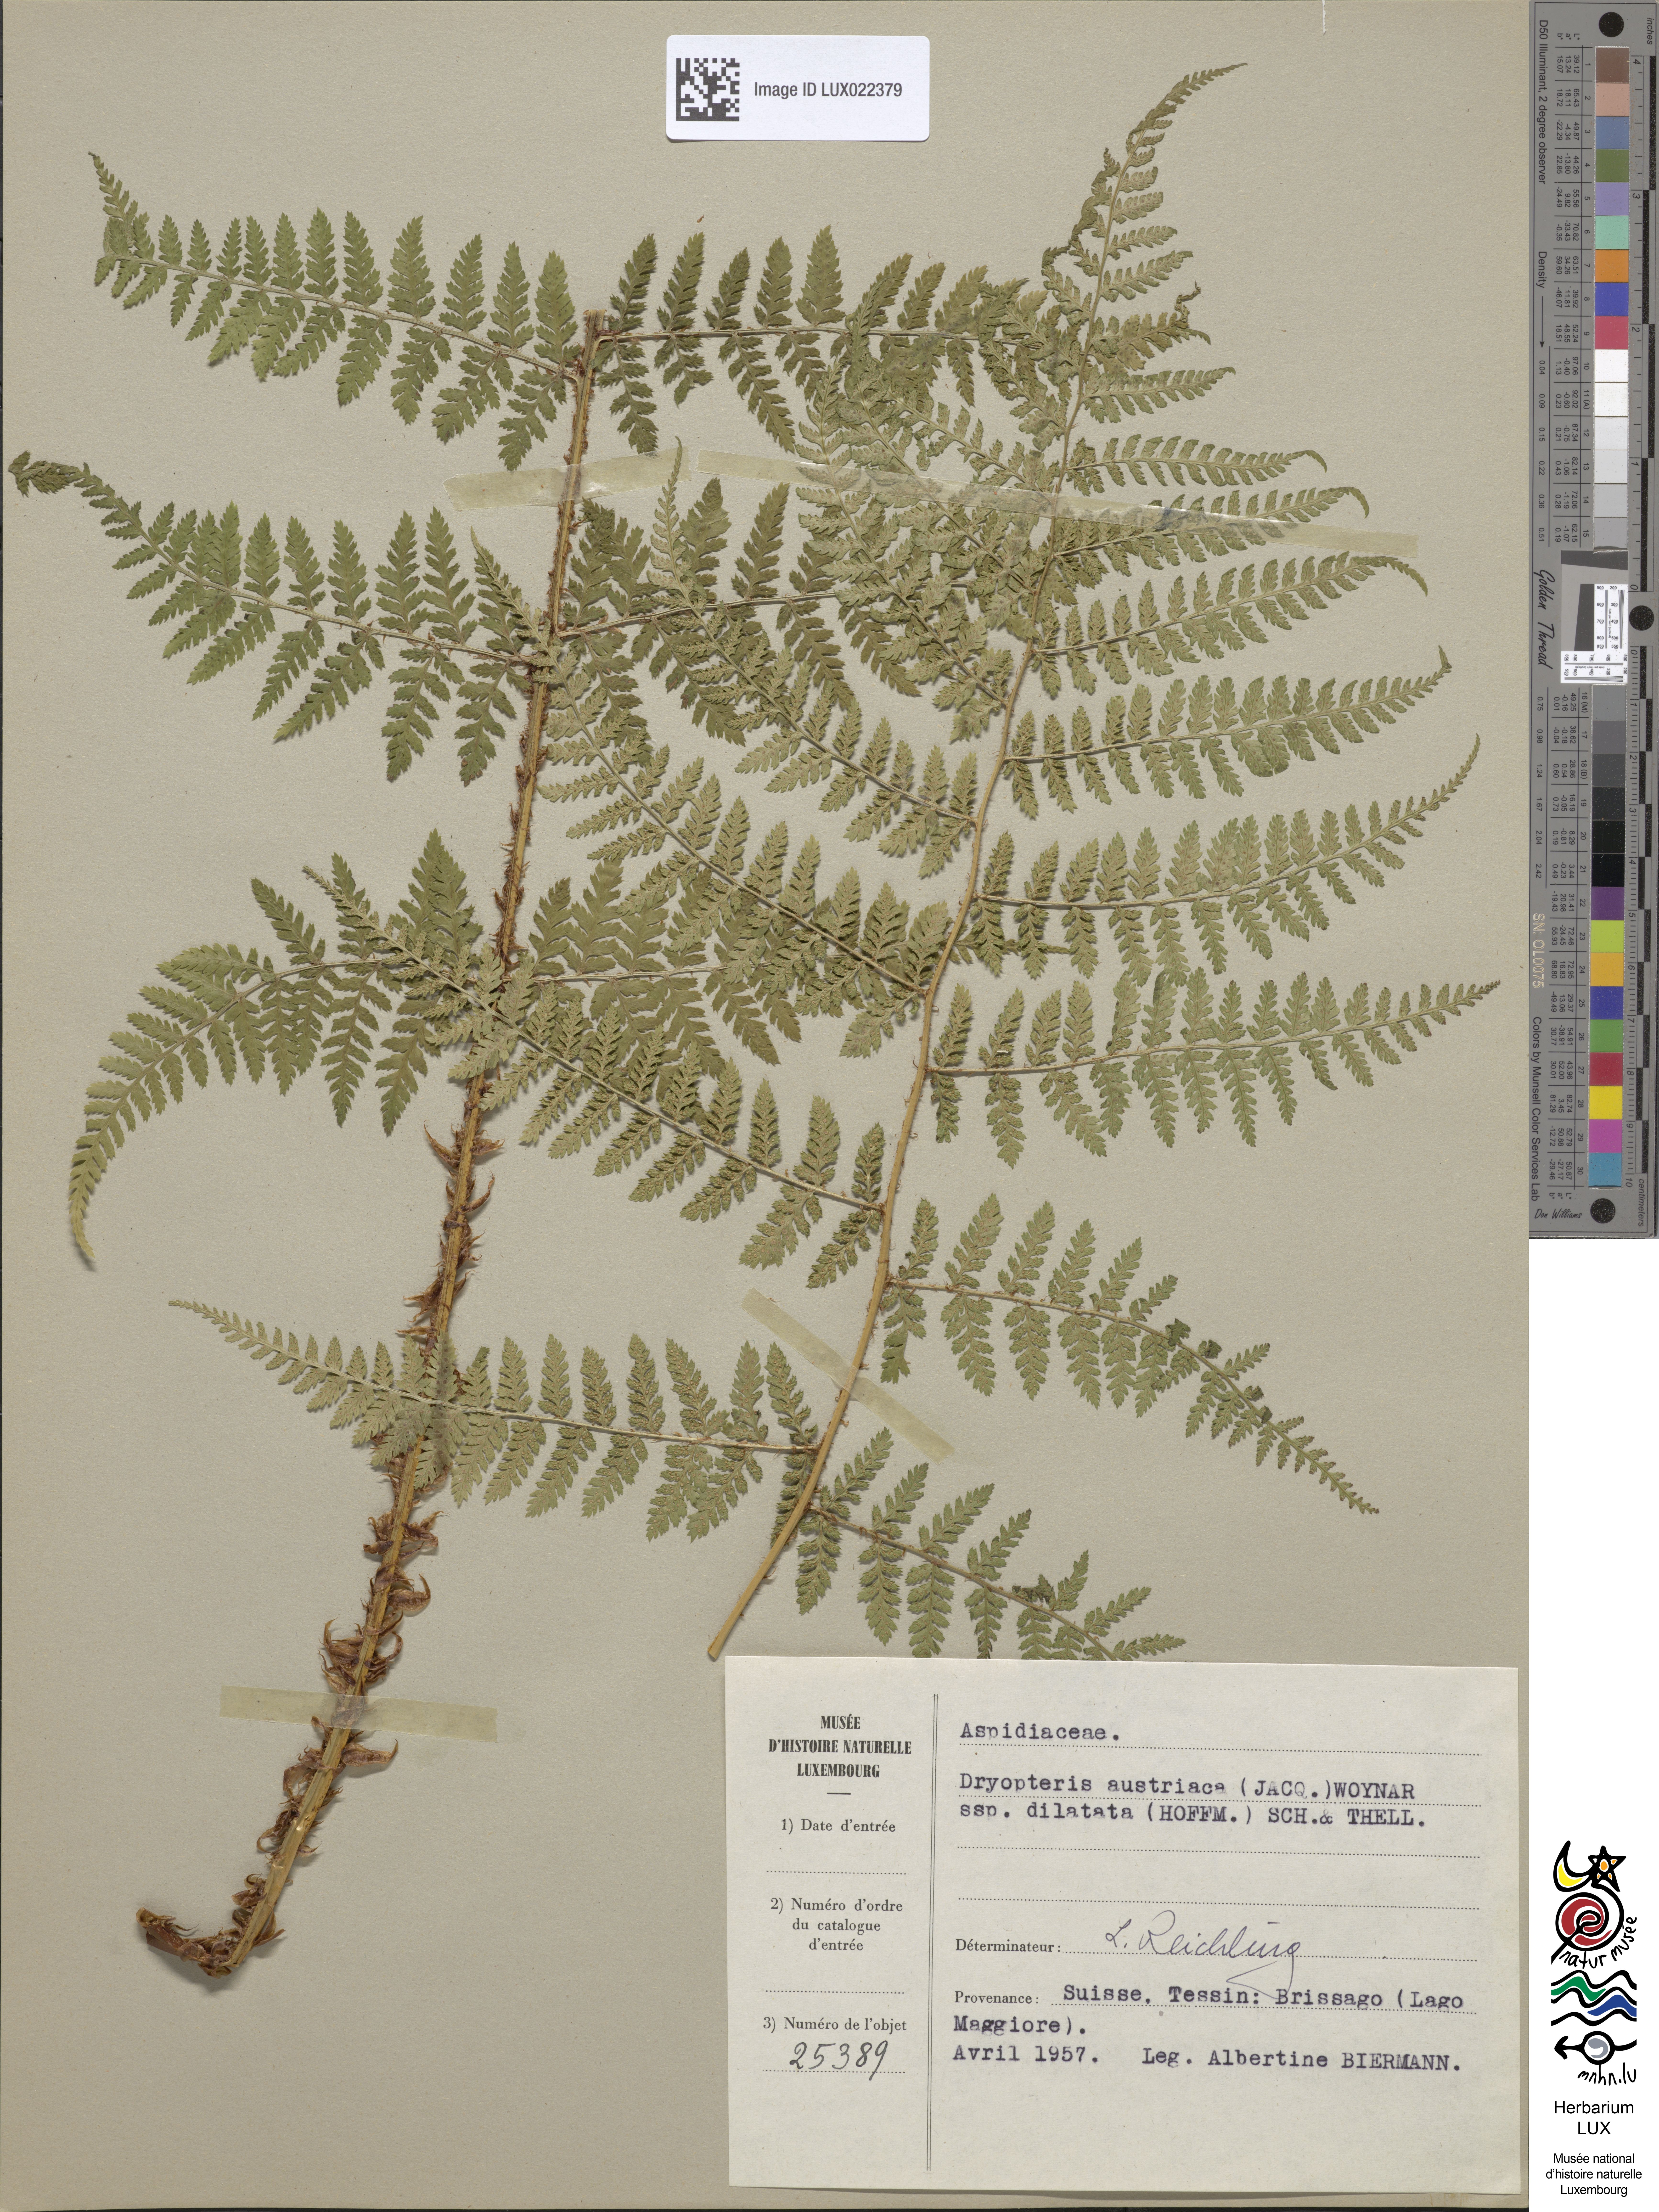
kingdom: Plantae
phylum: Tracheophyta
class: Polypodiopsida
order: Polypodiales
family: Dryopteridaceae
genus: Dryopteris
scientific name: Dryopteris dilatata
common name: Broad buckler-fern
